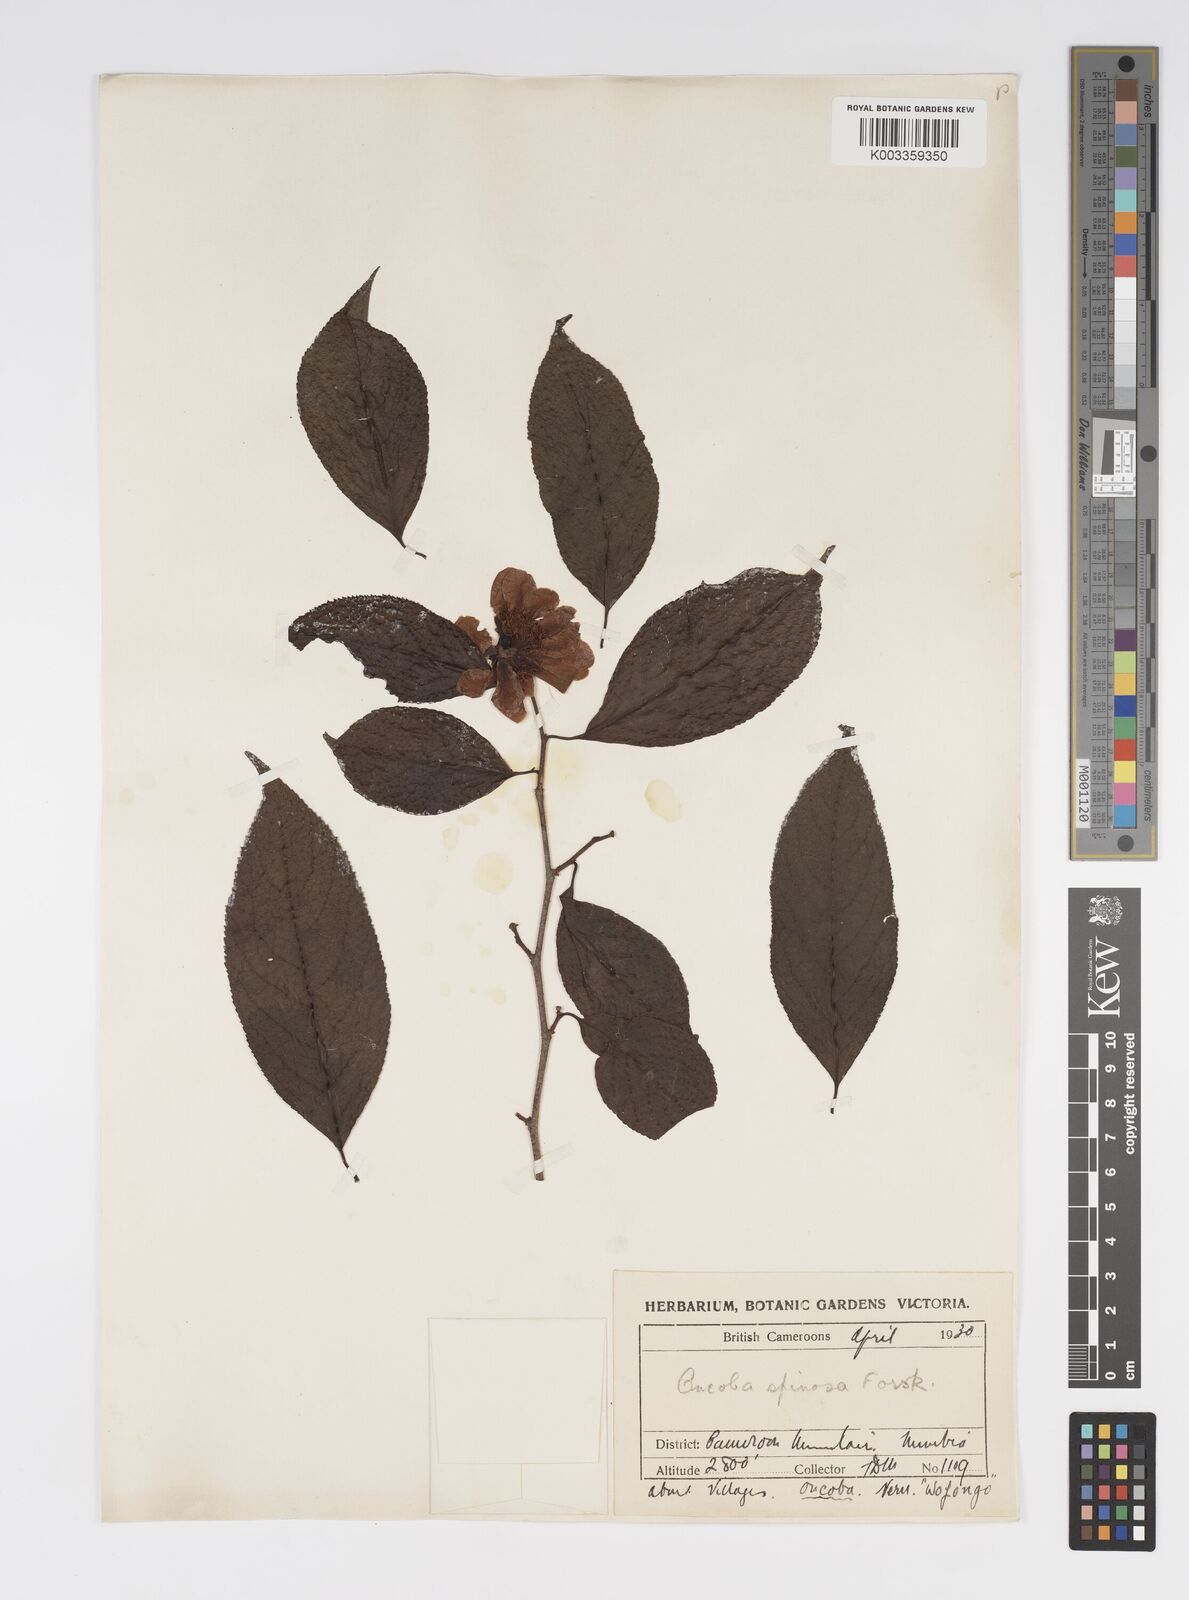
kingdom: Plantae
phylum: Tracheophyta
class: Magnoliopsida
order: Malpighiales
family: Salicaceae
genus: Oncoba
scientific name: Oncoba spinosa
